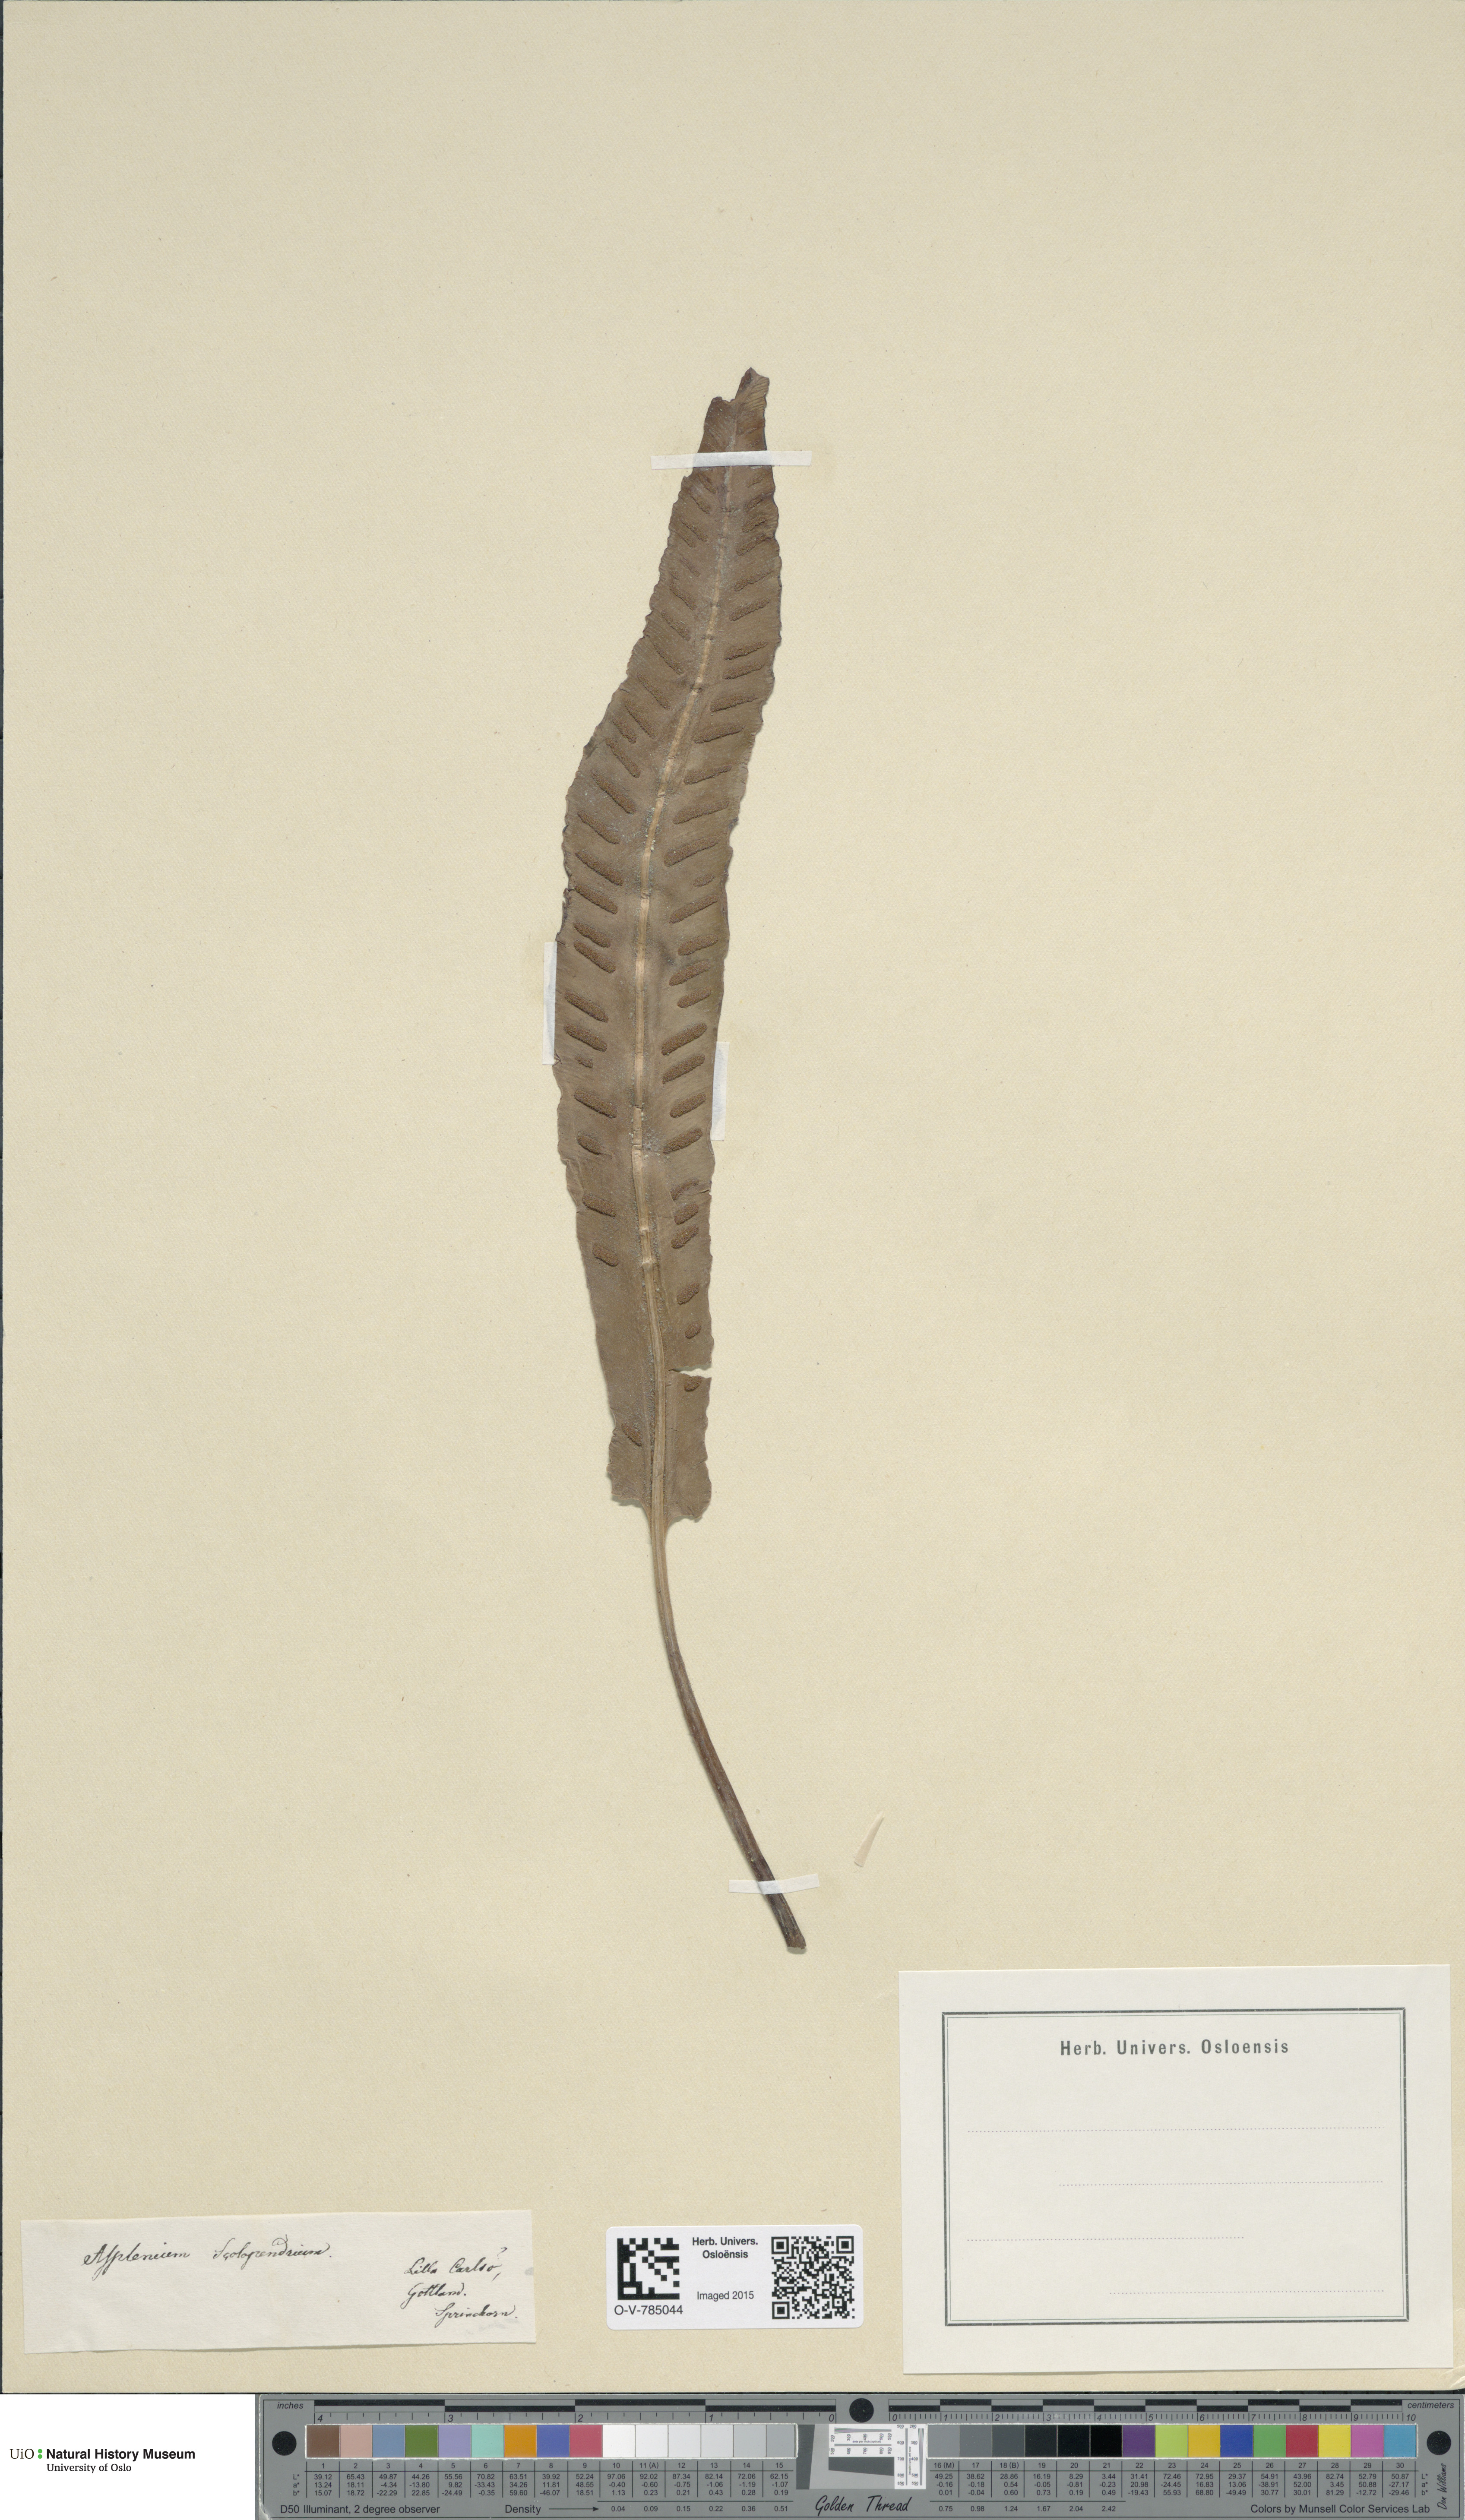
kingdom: Plantae
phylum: Tracheophyta
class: Polypodiopsida
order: Polypodiales
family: Aspleniaceae
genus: Asplenium
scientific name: Asplenium scolopendrium
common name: Hart's-tongue fern
